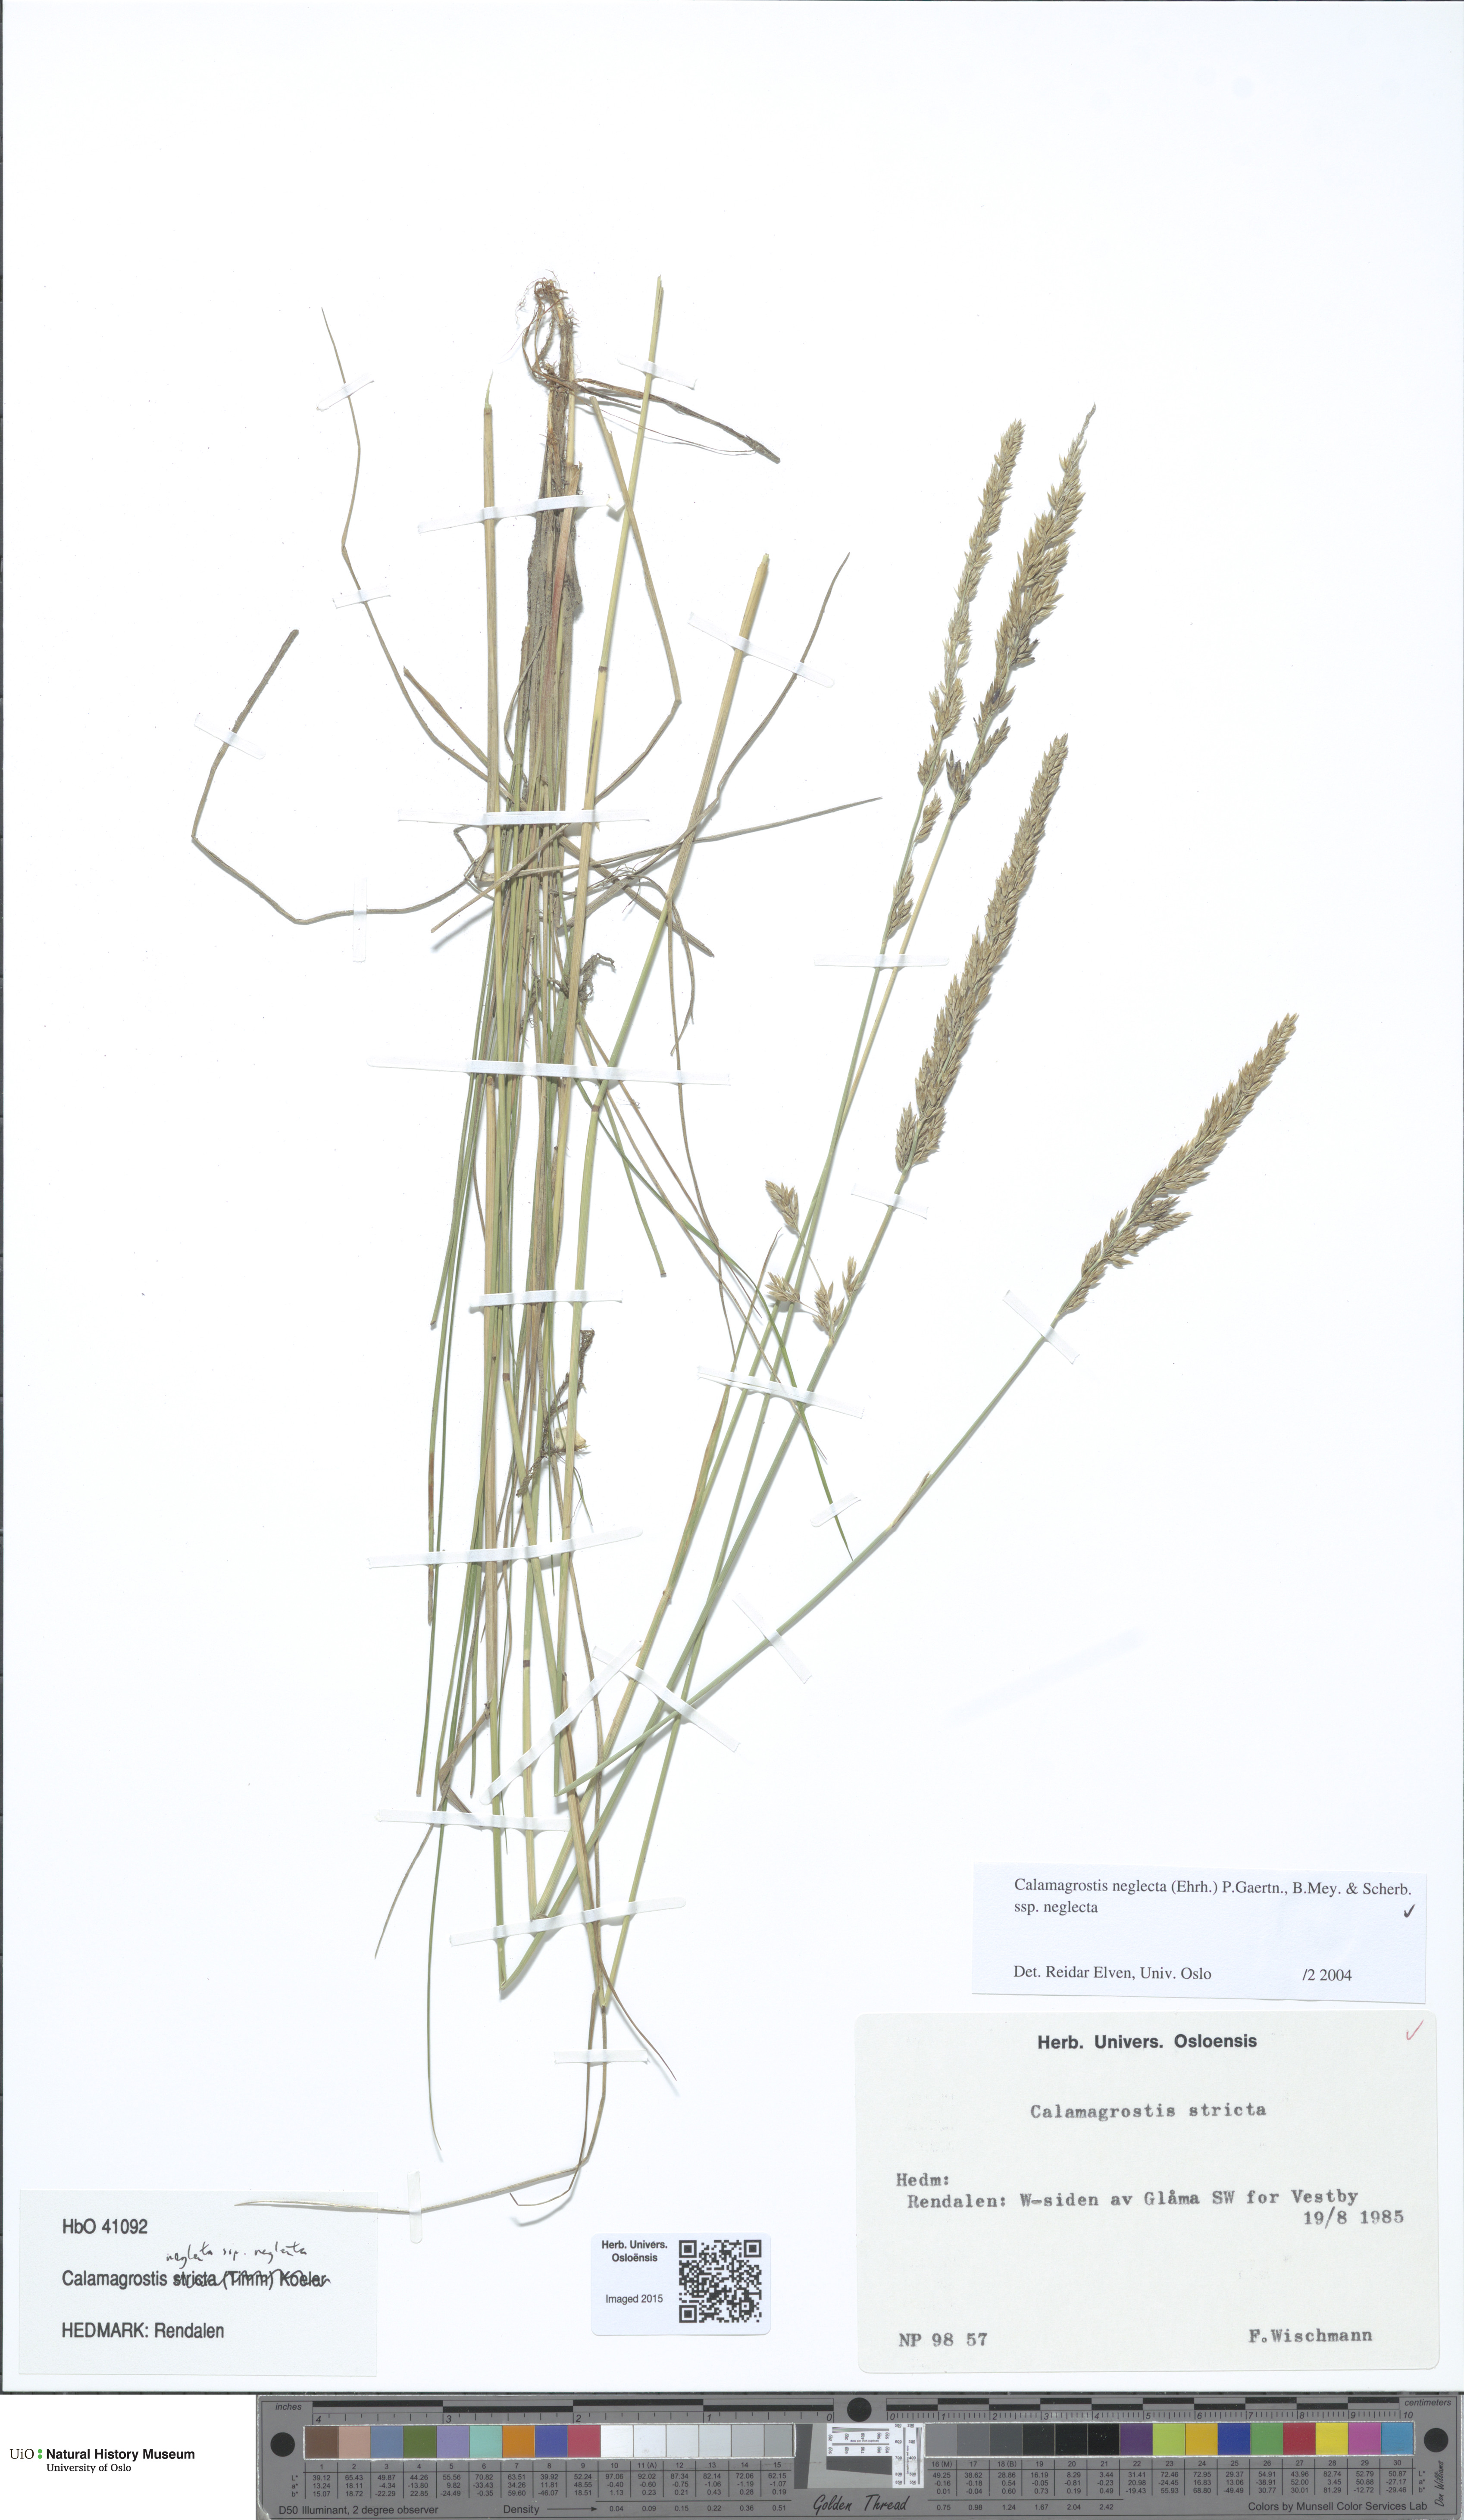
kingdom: Plantae
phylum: Tracheophyta
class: Liliopsida
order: Poales
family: Poaceae
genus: Achnatherum
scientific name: Achnatherum calamagrostis
